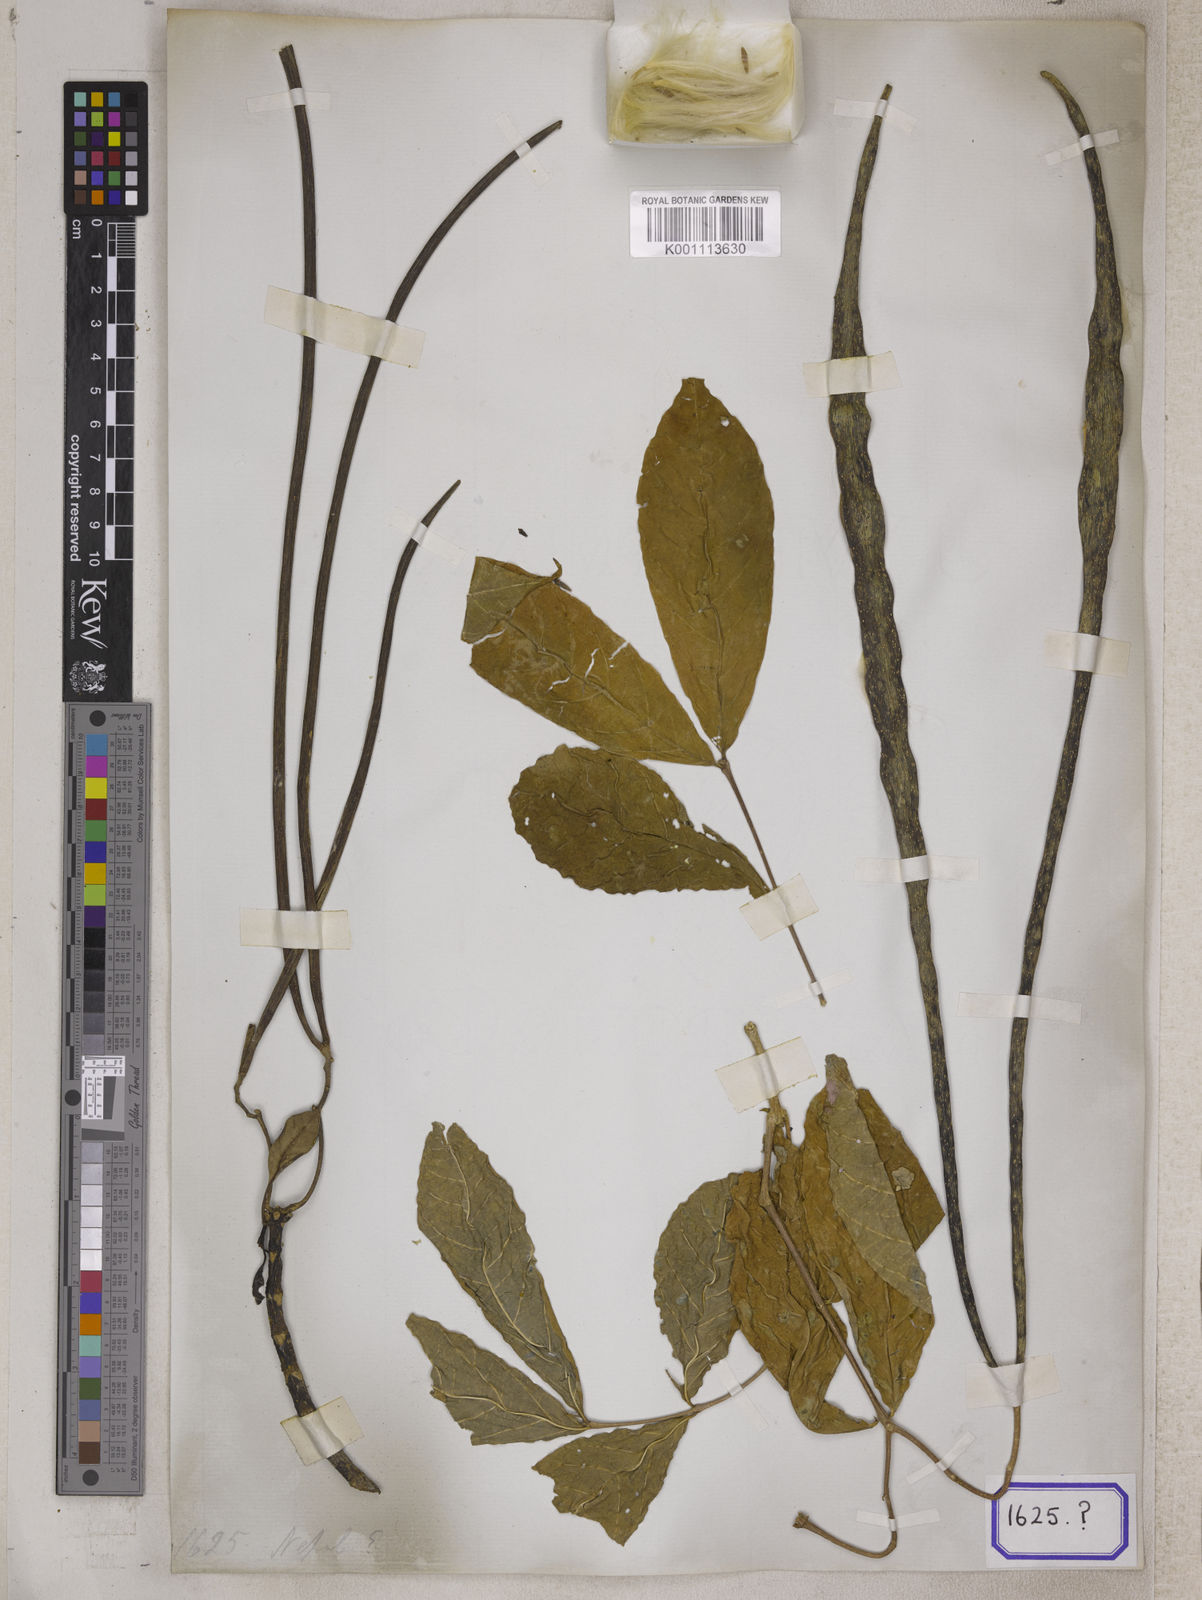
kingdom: Plantae
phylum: Tracheophyta
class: Magnoliopsida
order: Gentianales
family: Apocynaceae
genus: Wrightia
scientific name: Wrightia tinctoria
